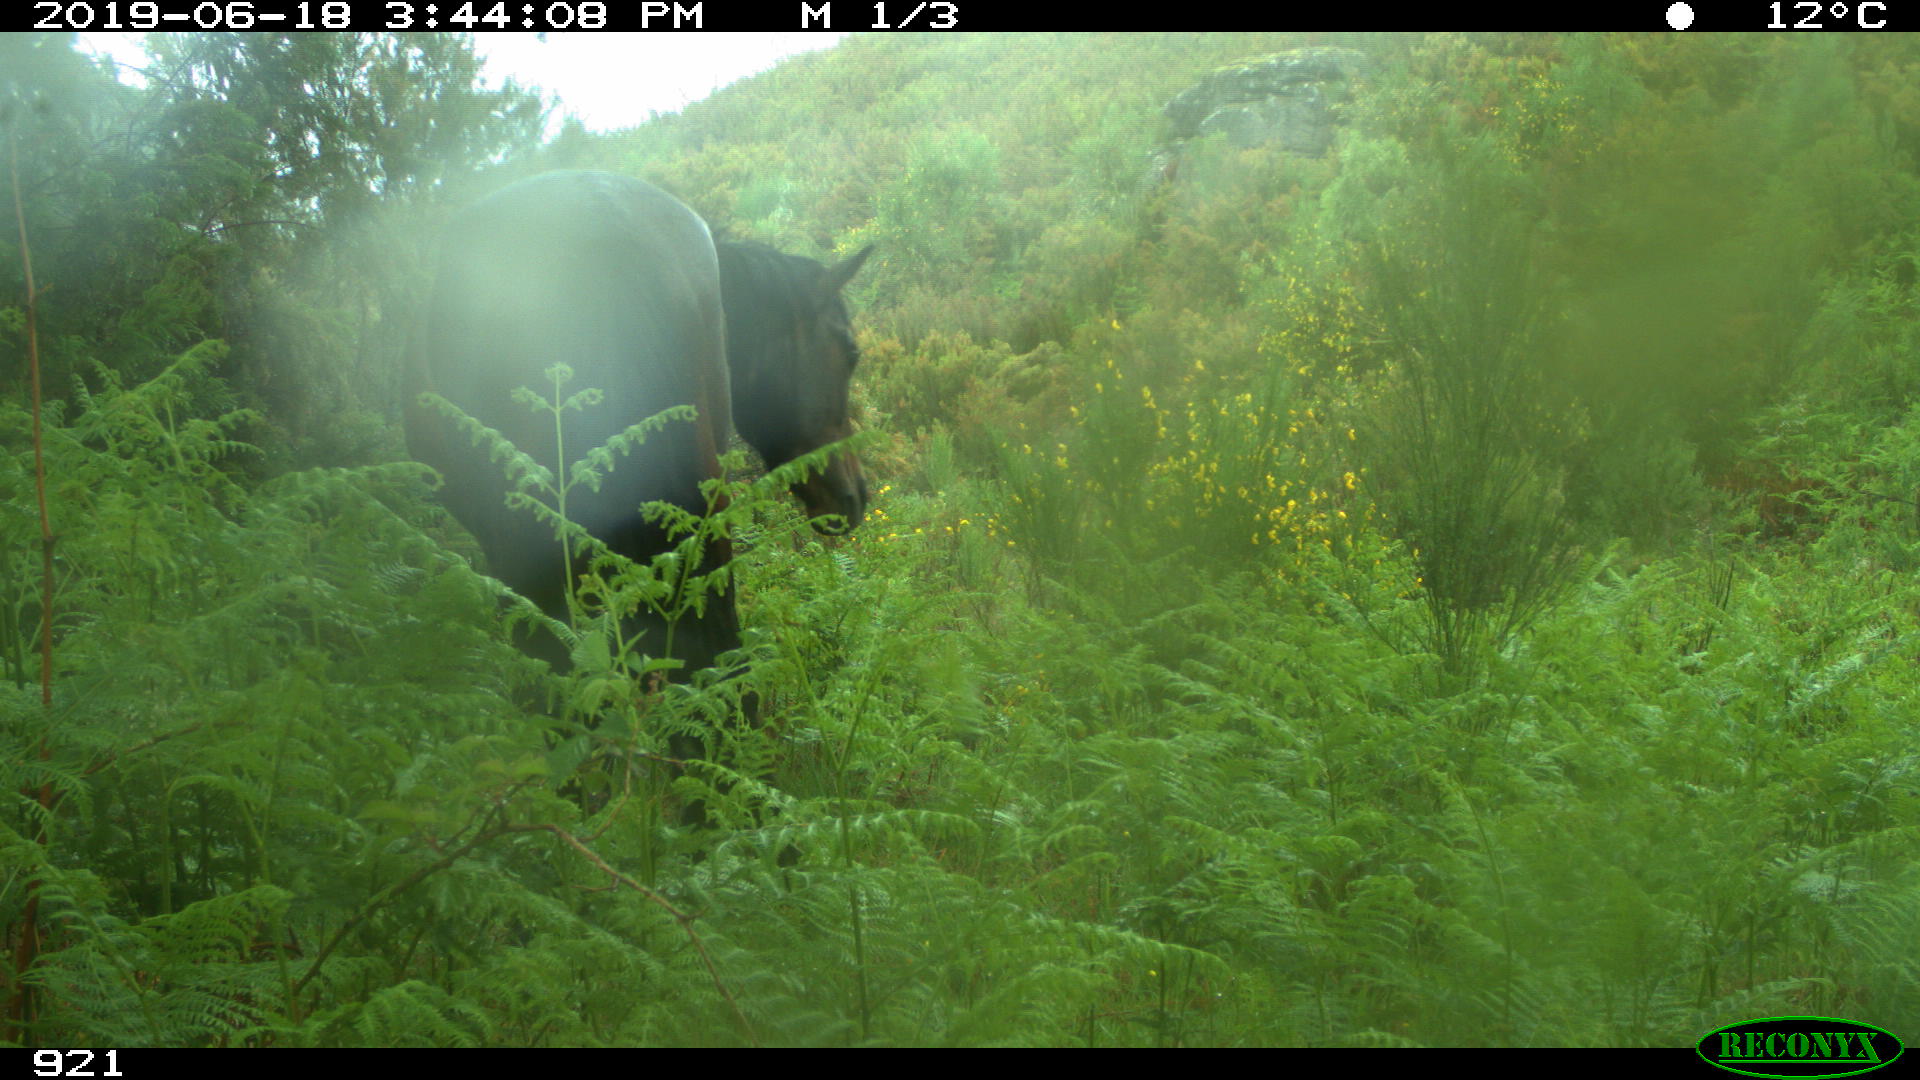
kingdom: Animalia
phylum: Chordata
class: Mammalia
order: Perissodactyla
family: Equidae
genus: Equus
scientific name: Equus caballus
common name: Horse
